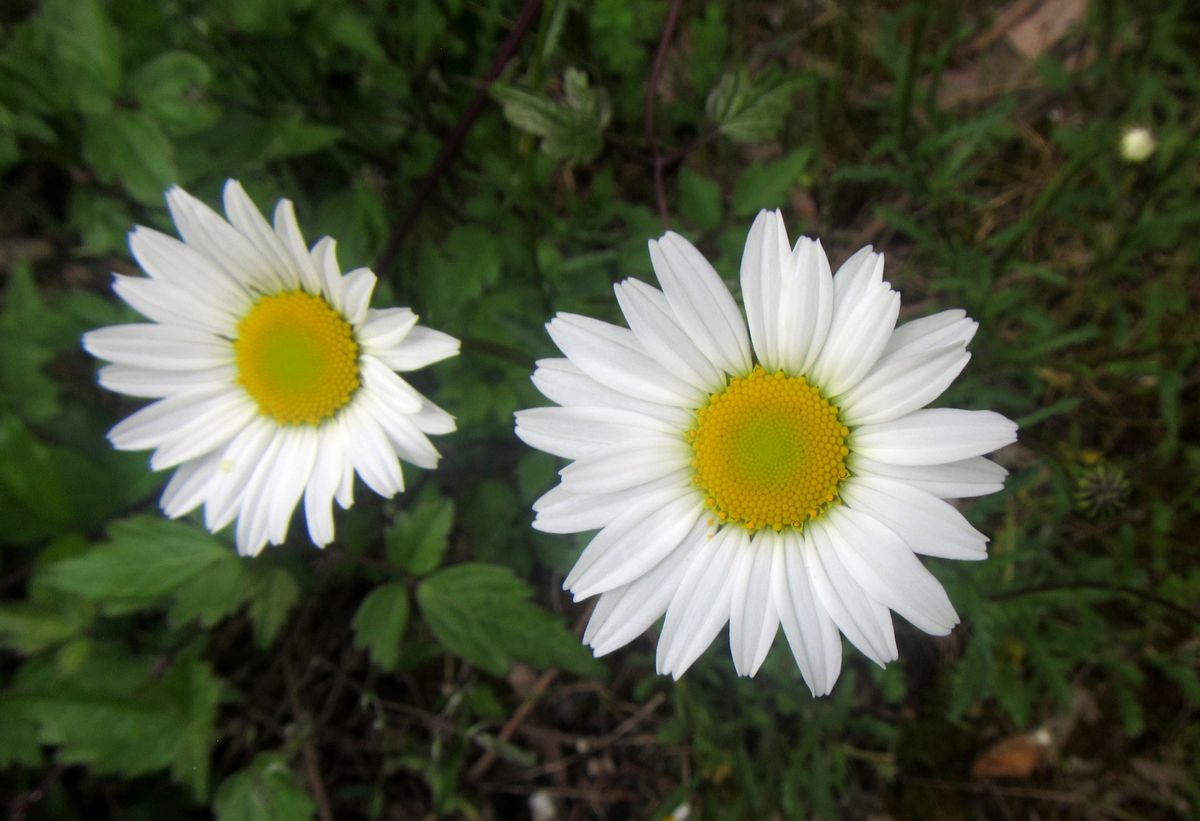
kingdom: Plantae
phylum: Tracheophyta
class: Magnoliopsida
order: Asterales
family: Asteraceae
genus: Leucanthemum
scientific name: Leucanthemum vulgare
